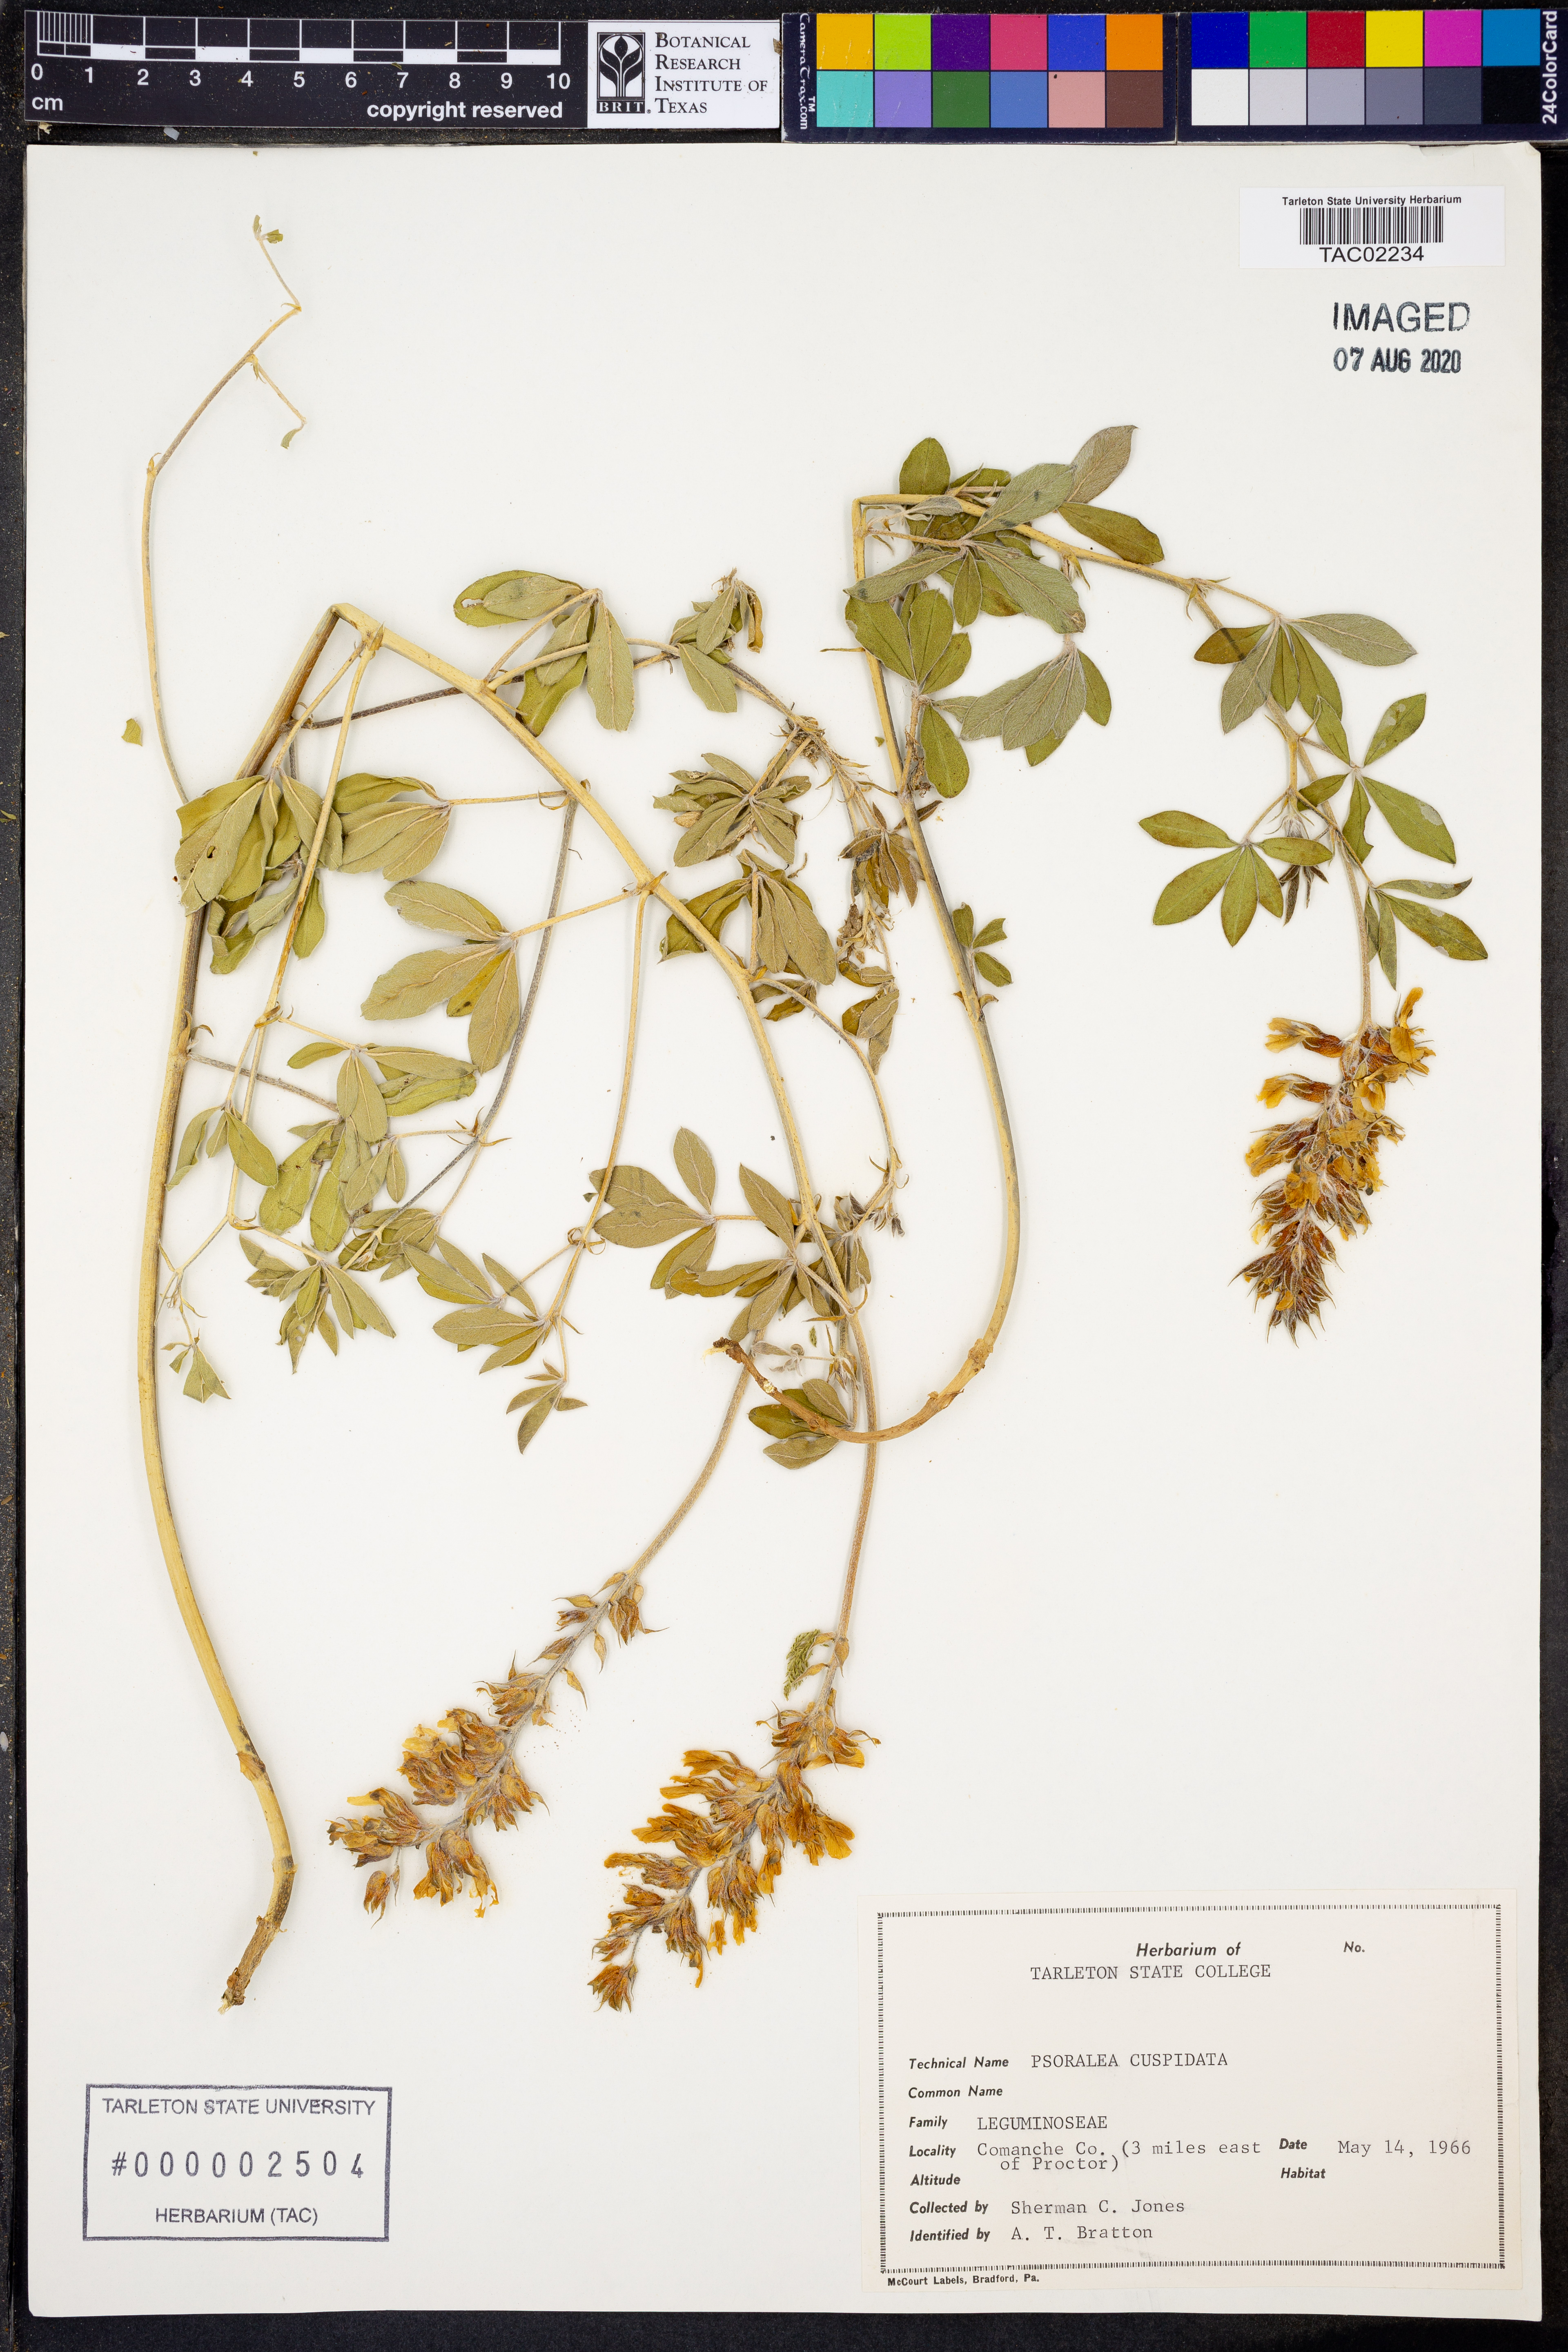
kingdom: Plantae
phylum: Tracheophyta
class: Magnoliopsida
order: Fabales
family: Fabaceae
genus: Pediomelum
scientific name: Pediomelum cuspidatum
